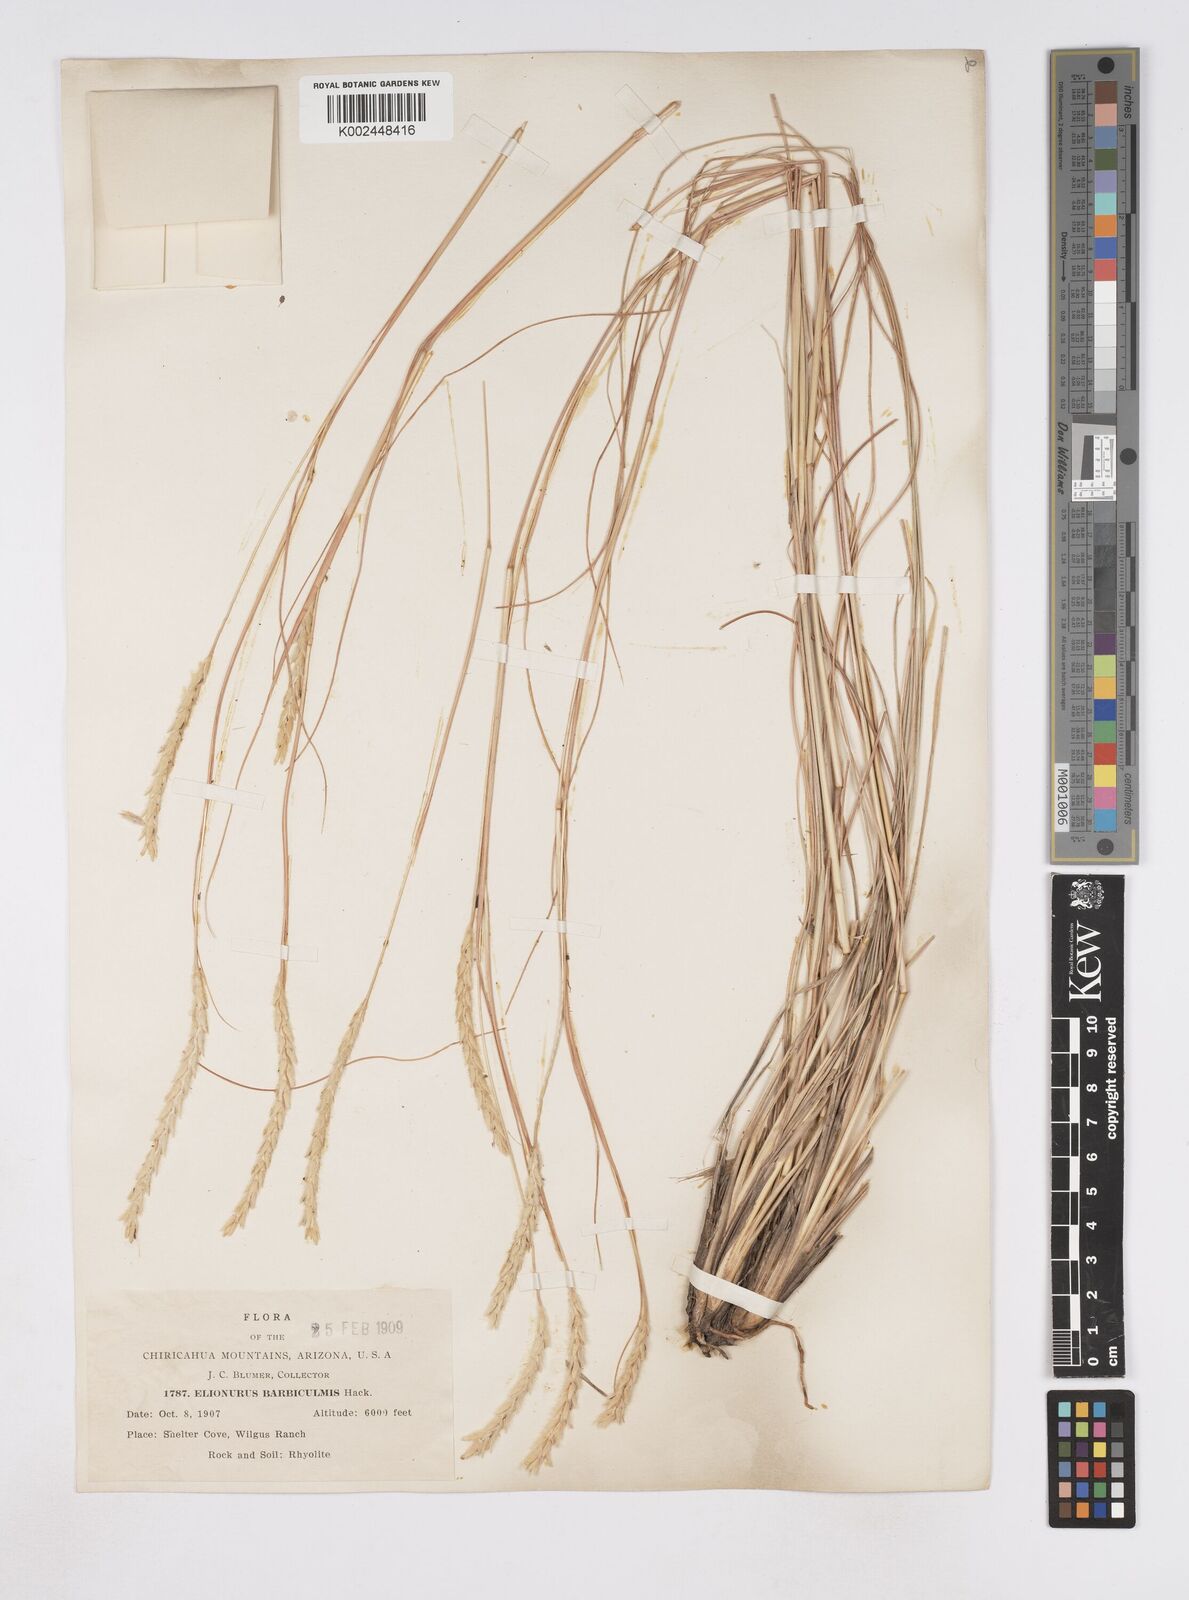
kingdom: Plantae
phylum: Tracheophyta
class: Liliopsida
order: Poales
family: Poaceae
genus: Elionurus
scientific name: Elionurus barbiculmis
